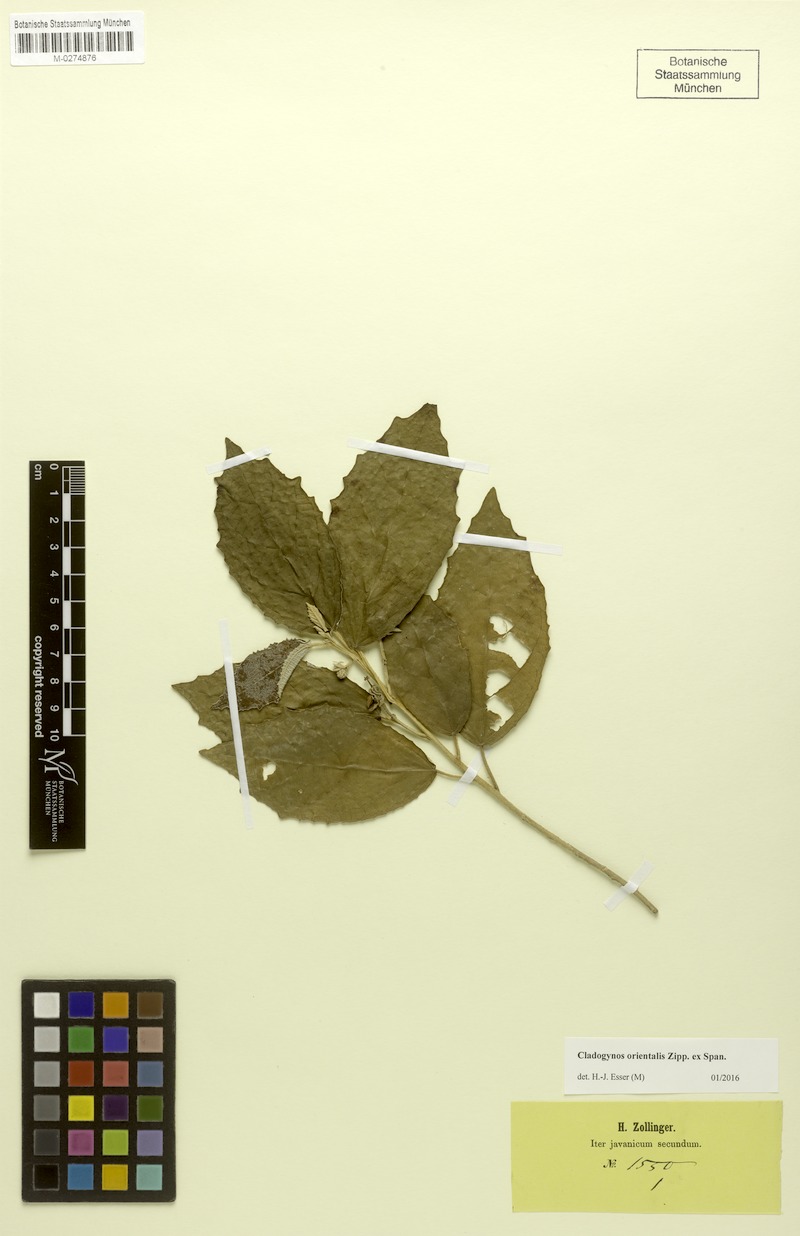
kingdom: Plantae
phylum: Tracheophyta
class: Magnoliopsida
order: Malpighiales
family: Euphorbiaceae
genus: Cladogynos
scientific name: Cladogynos orientalis
